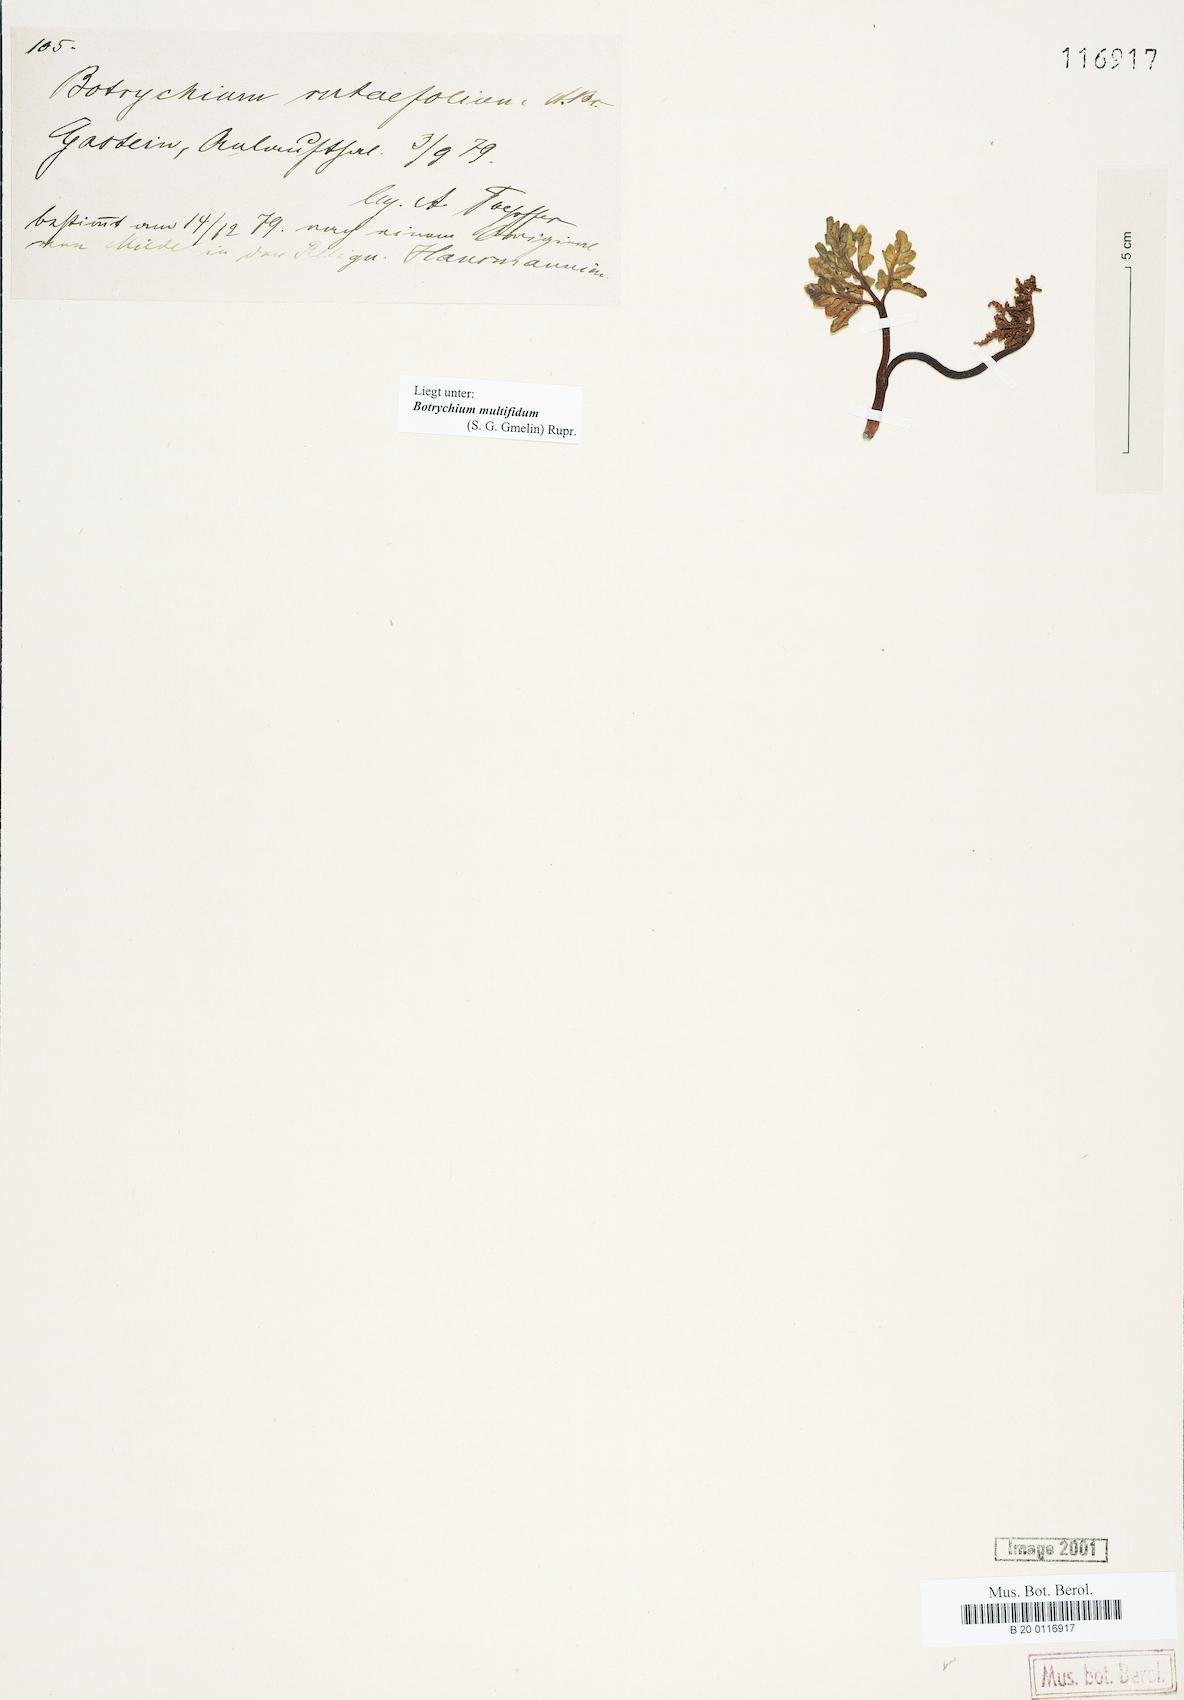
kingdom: Plantae
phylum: Tracheophyta
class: Polypodiopsida
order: Ophioglossales
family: Ophioglossaceae
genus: Sceptridium
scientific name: Sceptridium multifidum
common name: Leathery grape fern
